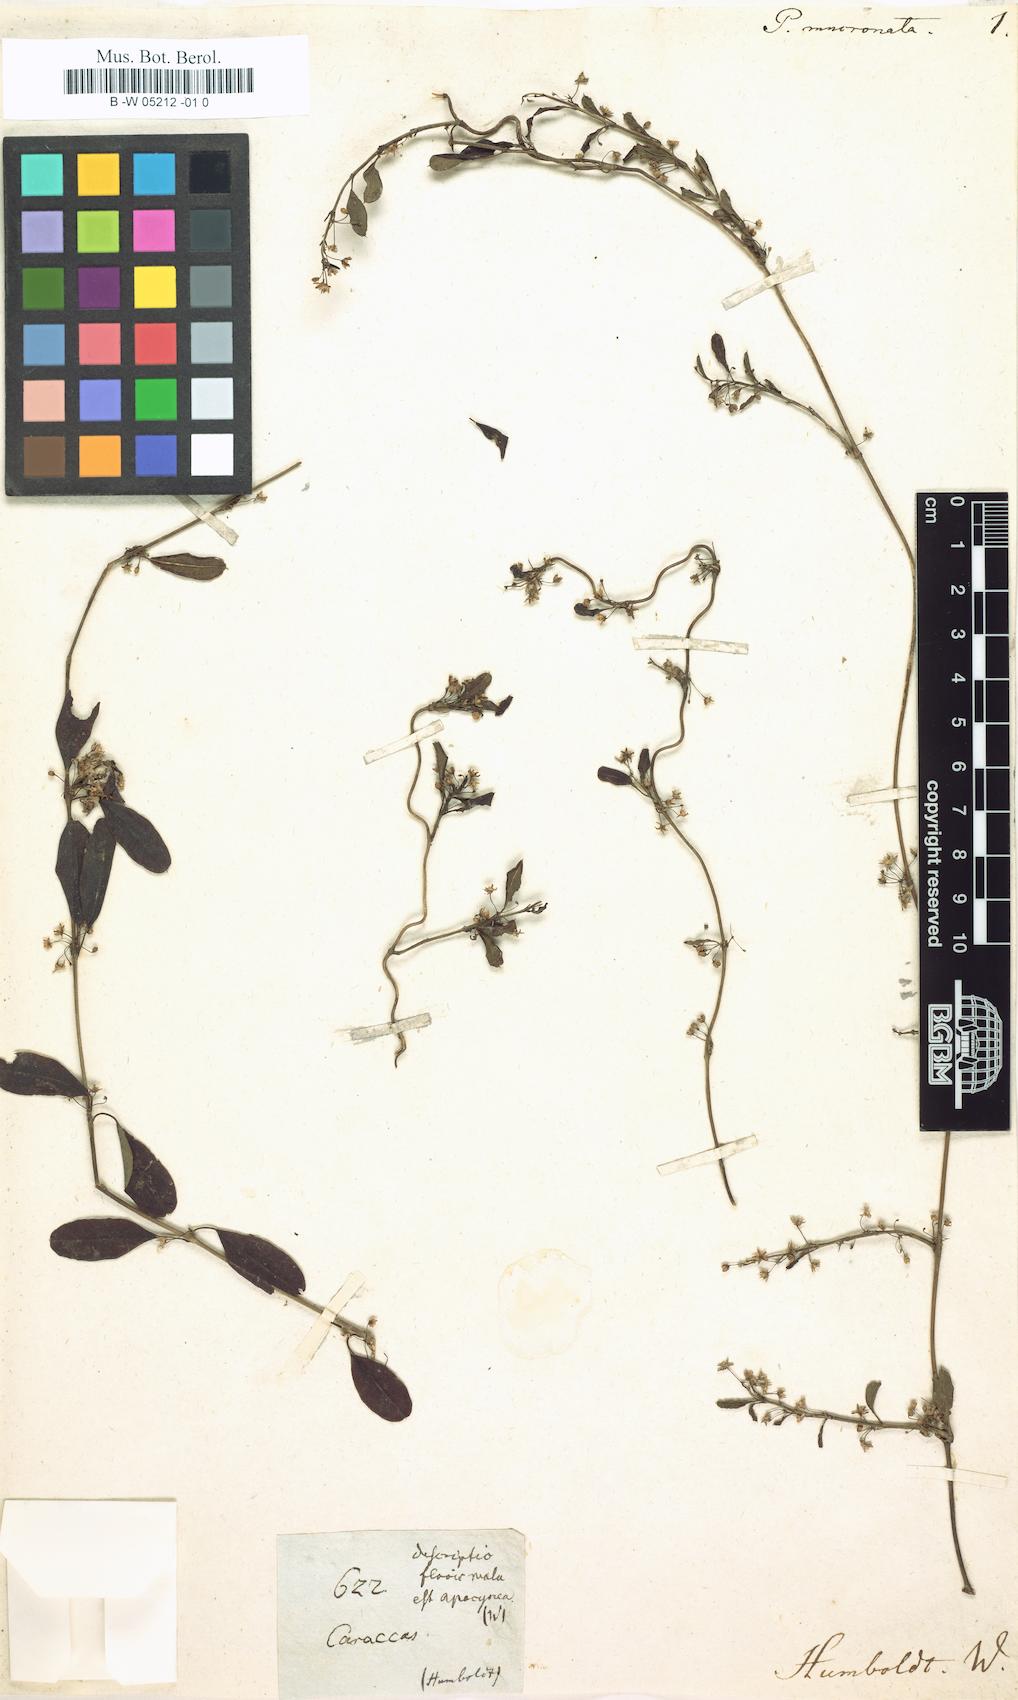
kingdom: Plantae
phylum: Tracheophyta
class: Magnoliopsida
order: Gentianales
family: Apocynaceae
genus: Diplolepis
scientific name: Diplolepis mucronata
